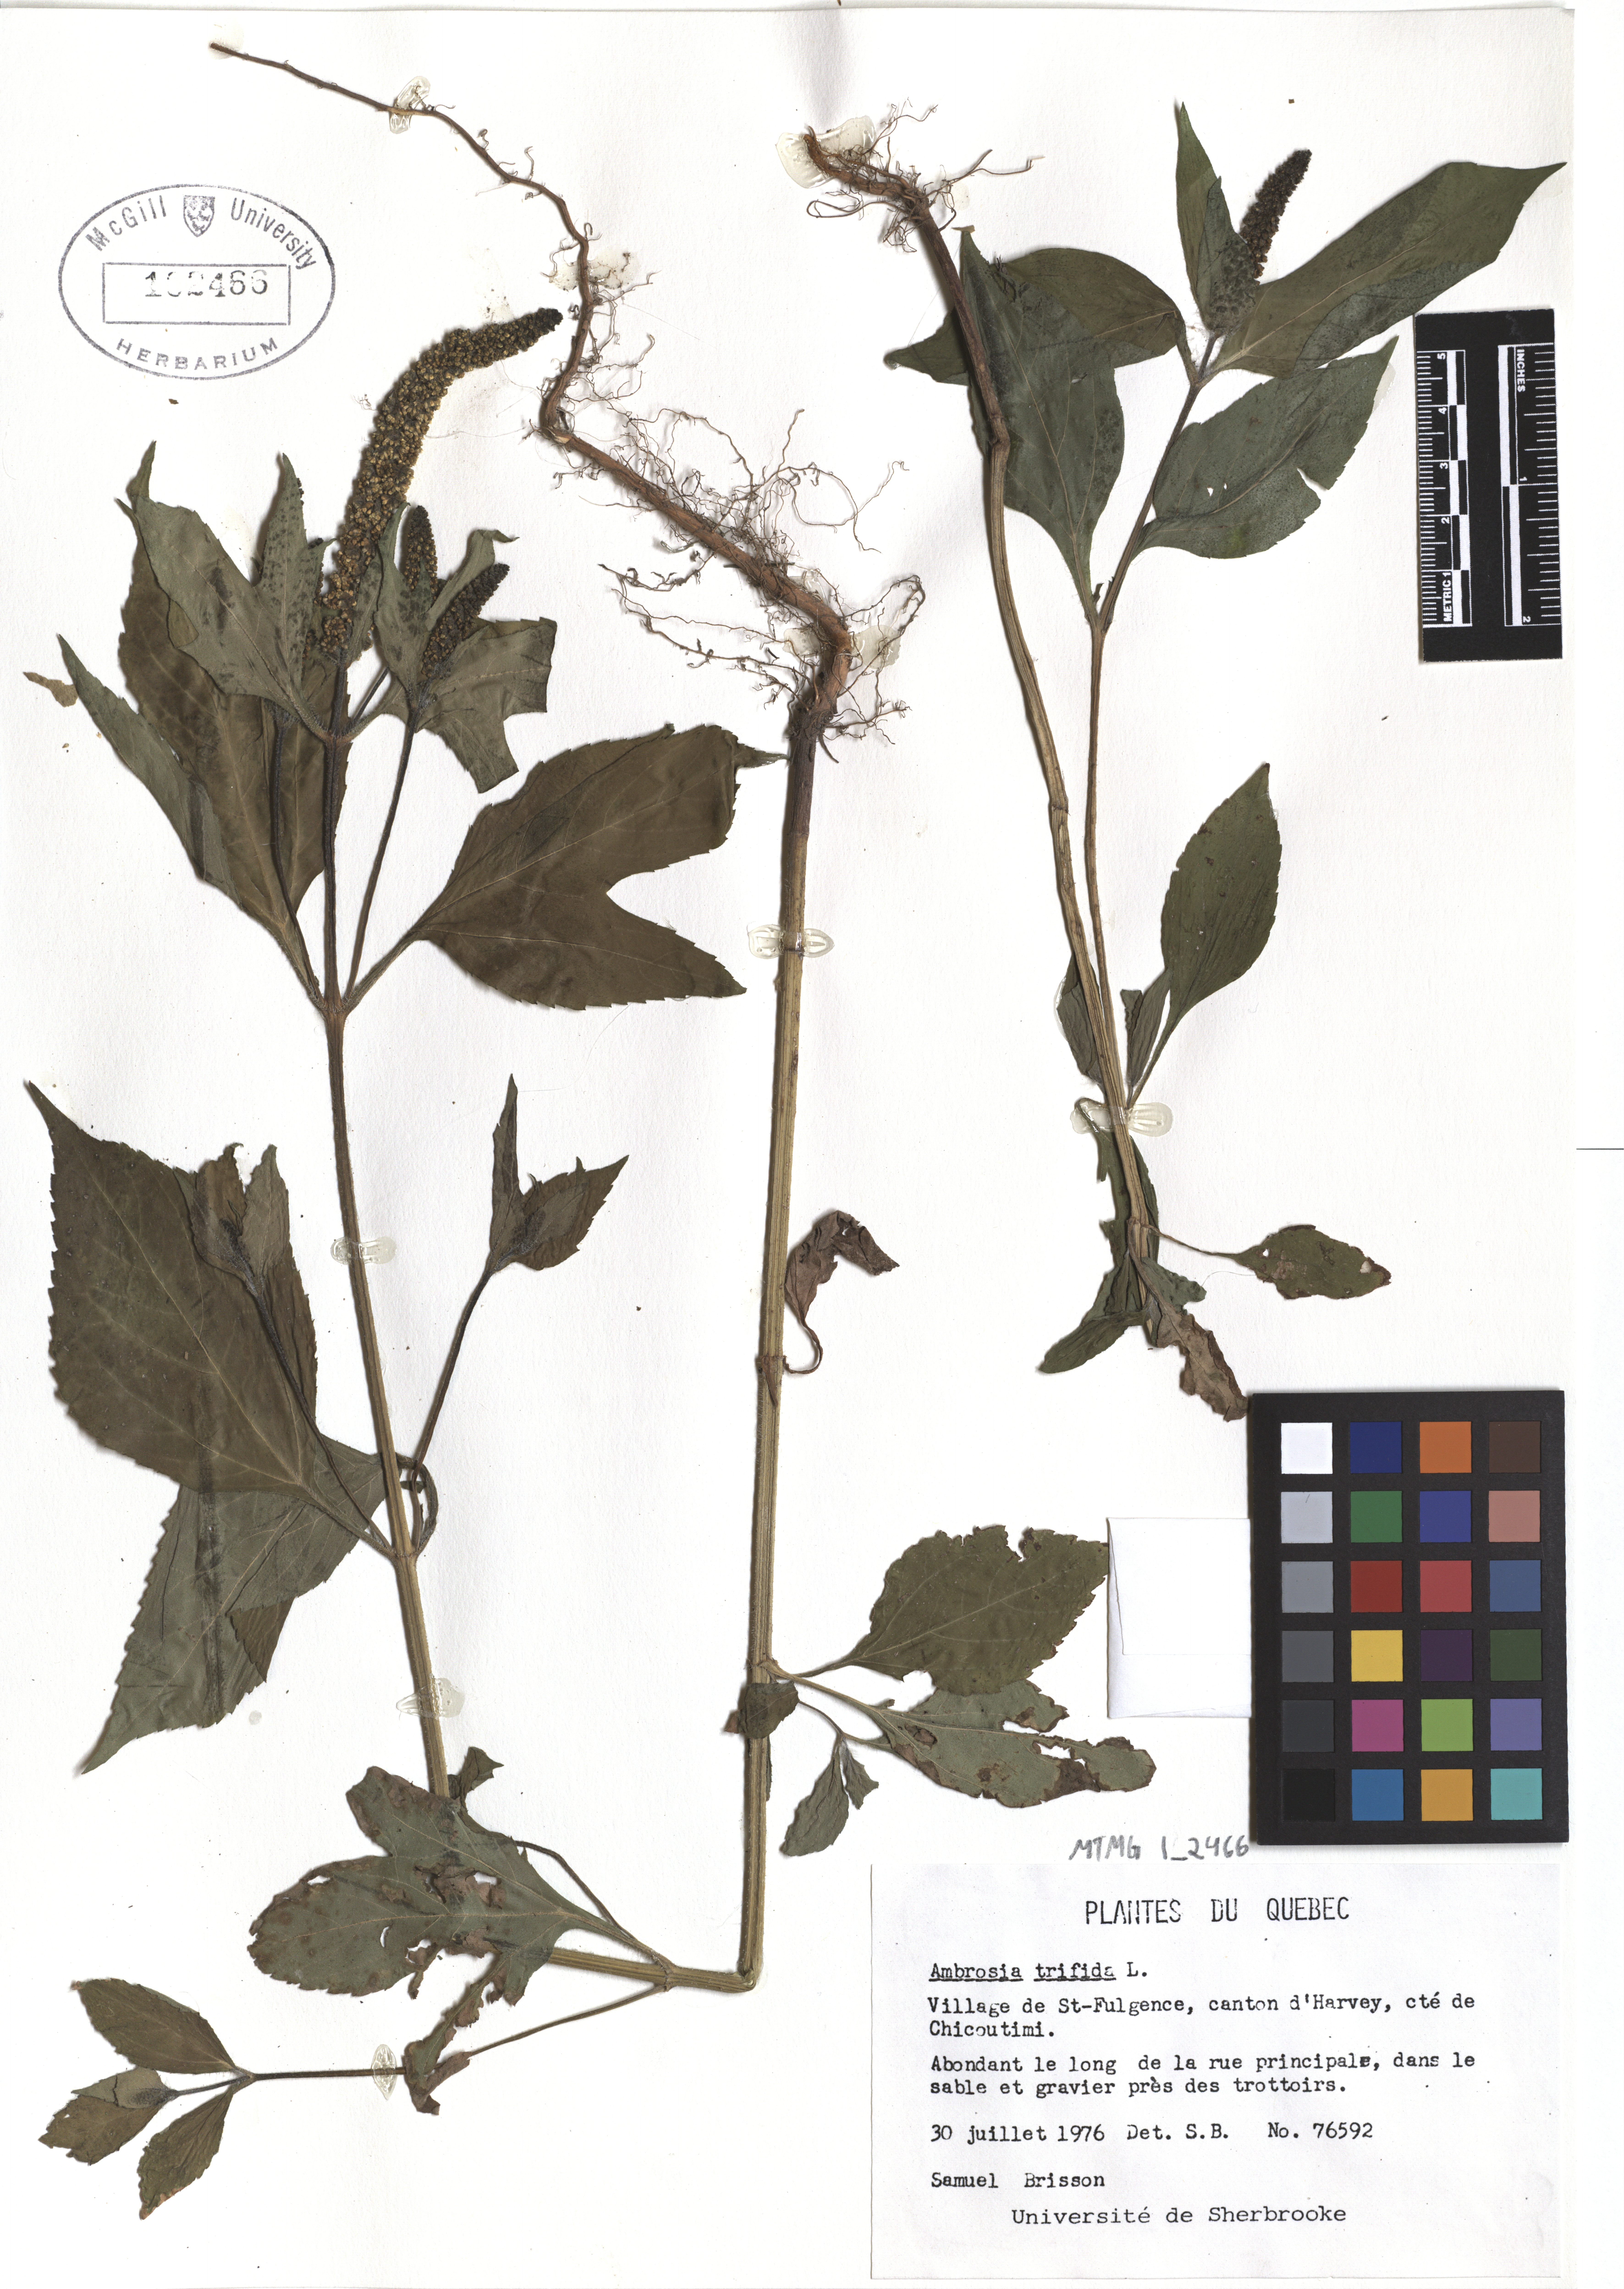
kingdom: Plantae
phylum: Tracheophyta
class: Magnoliopsida
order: Asterales
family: Asteraceae
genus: Ambrosia
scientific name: Ambrosia trifida
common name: Giant ragweed
